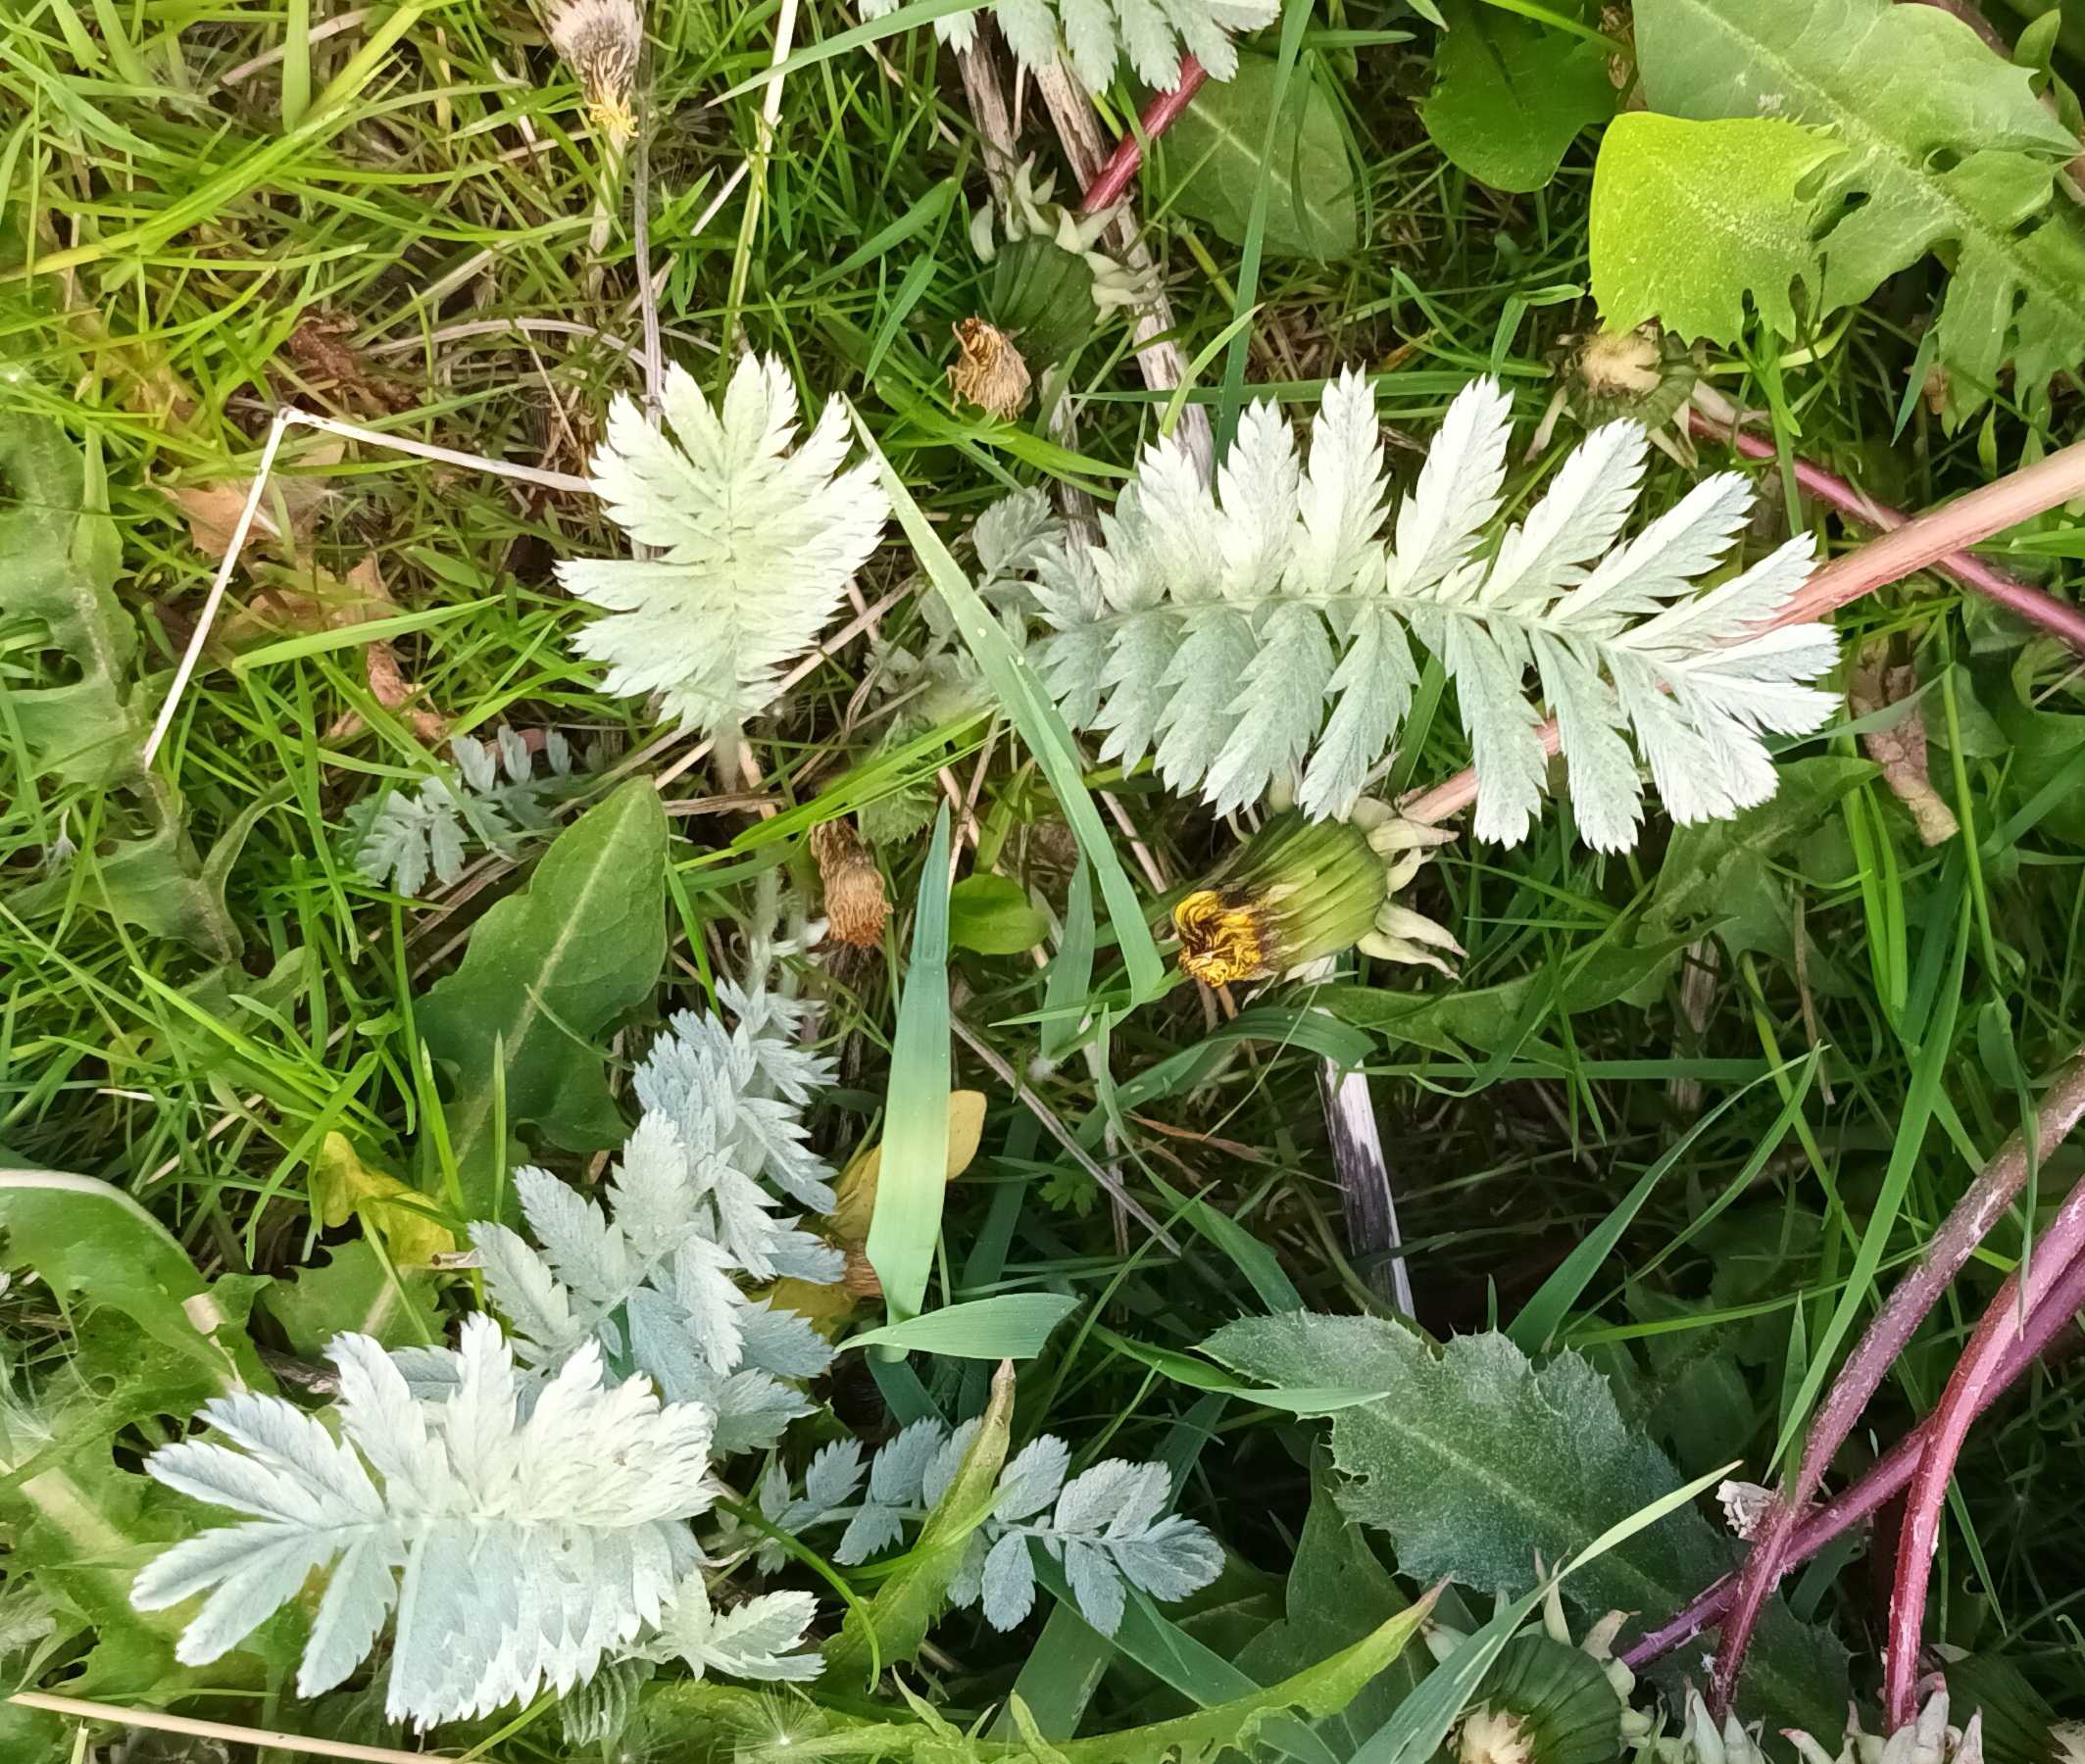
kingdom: Plantae
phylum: Tracheophyta
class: Magnoliopsida
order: Rosales
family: Rosaceae
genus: Argentina
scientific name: Argentina anserina
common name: Gåsepotentil
